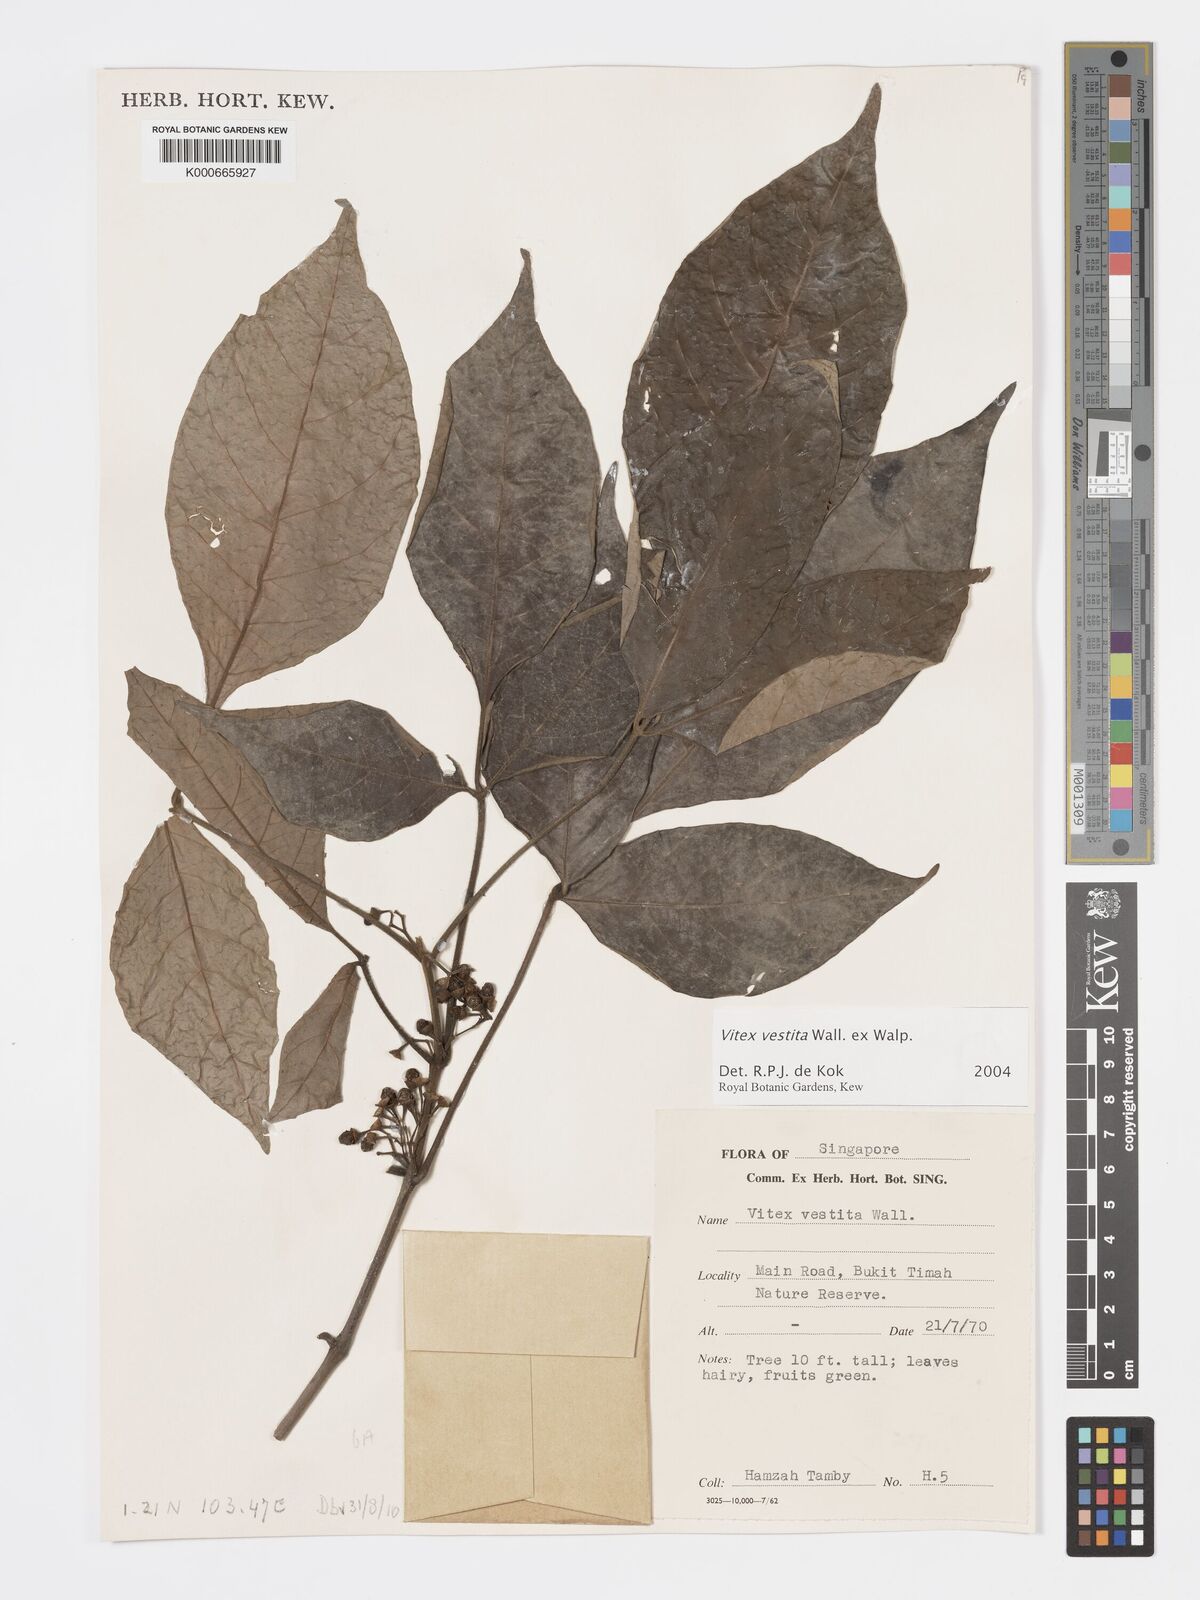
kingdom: Plantae
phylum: Tracheophyta
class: Magnoliopsida
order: Lamiales
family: Lamiaceae
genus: Vitex
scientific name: Vitex vestita
